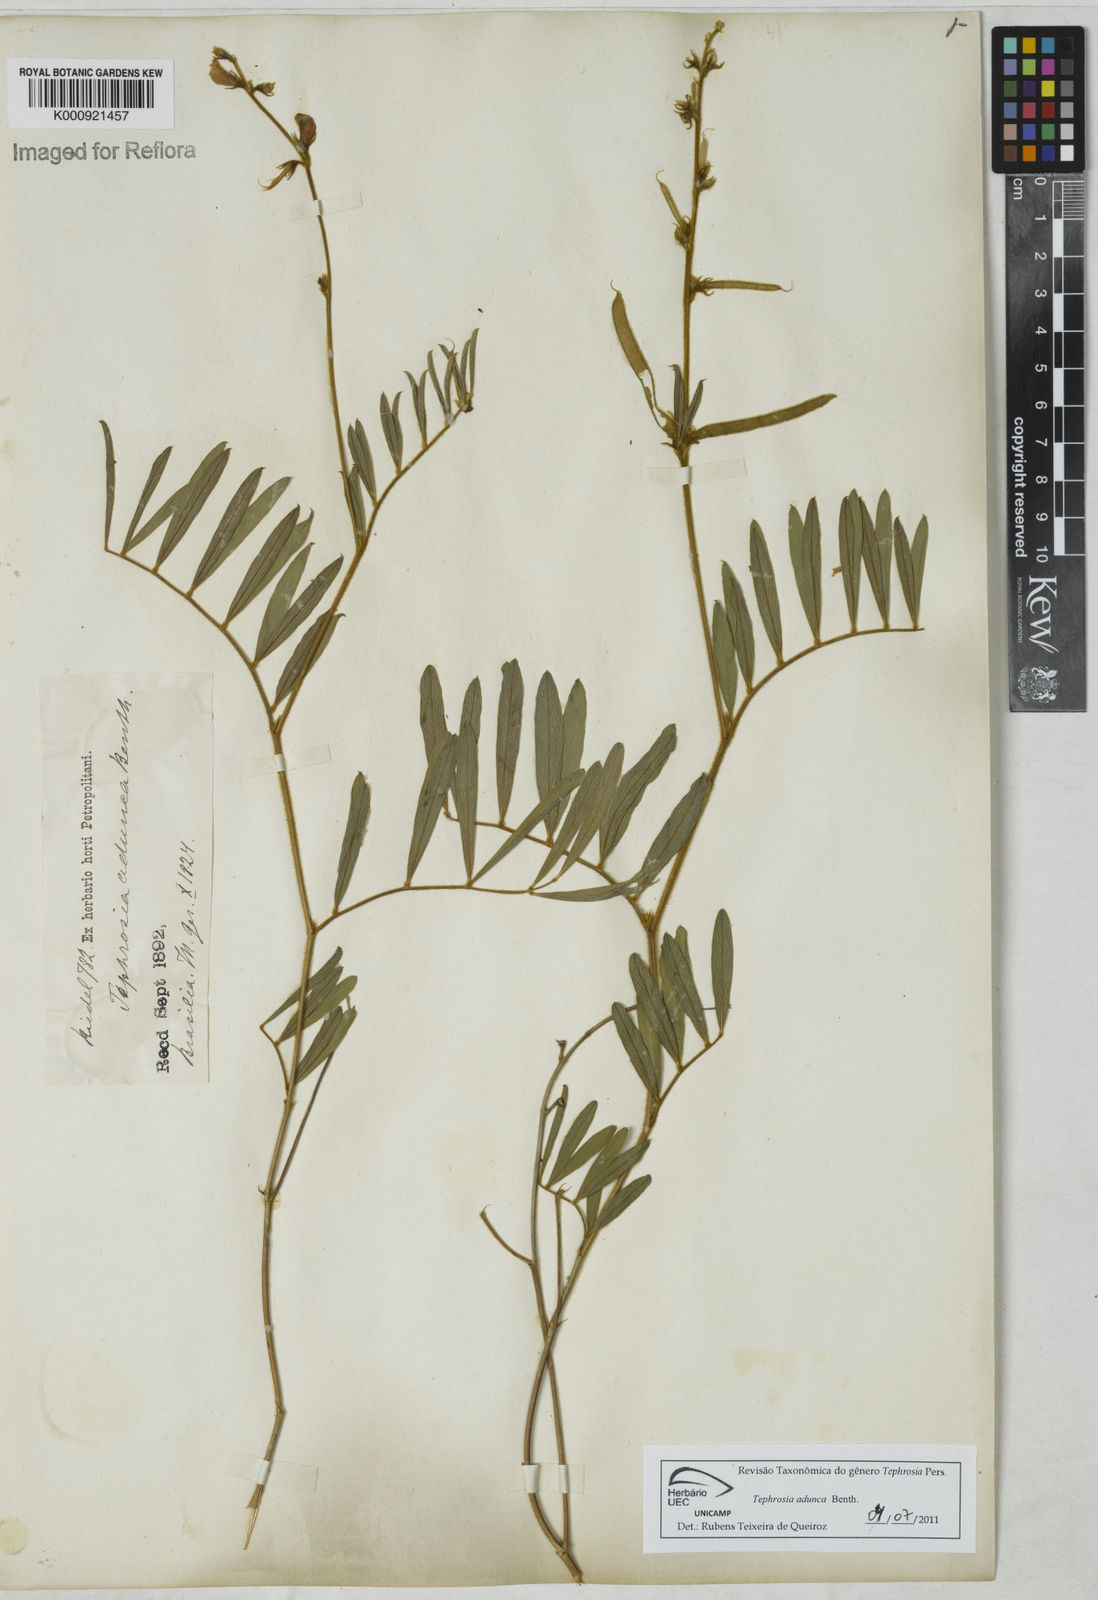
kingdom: Plantae
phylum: Tracheophyta
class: Magnoliopsida
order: Fabales
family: Fabaceae
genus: Tephrosia
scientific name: Tephrosia adunca
